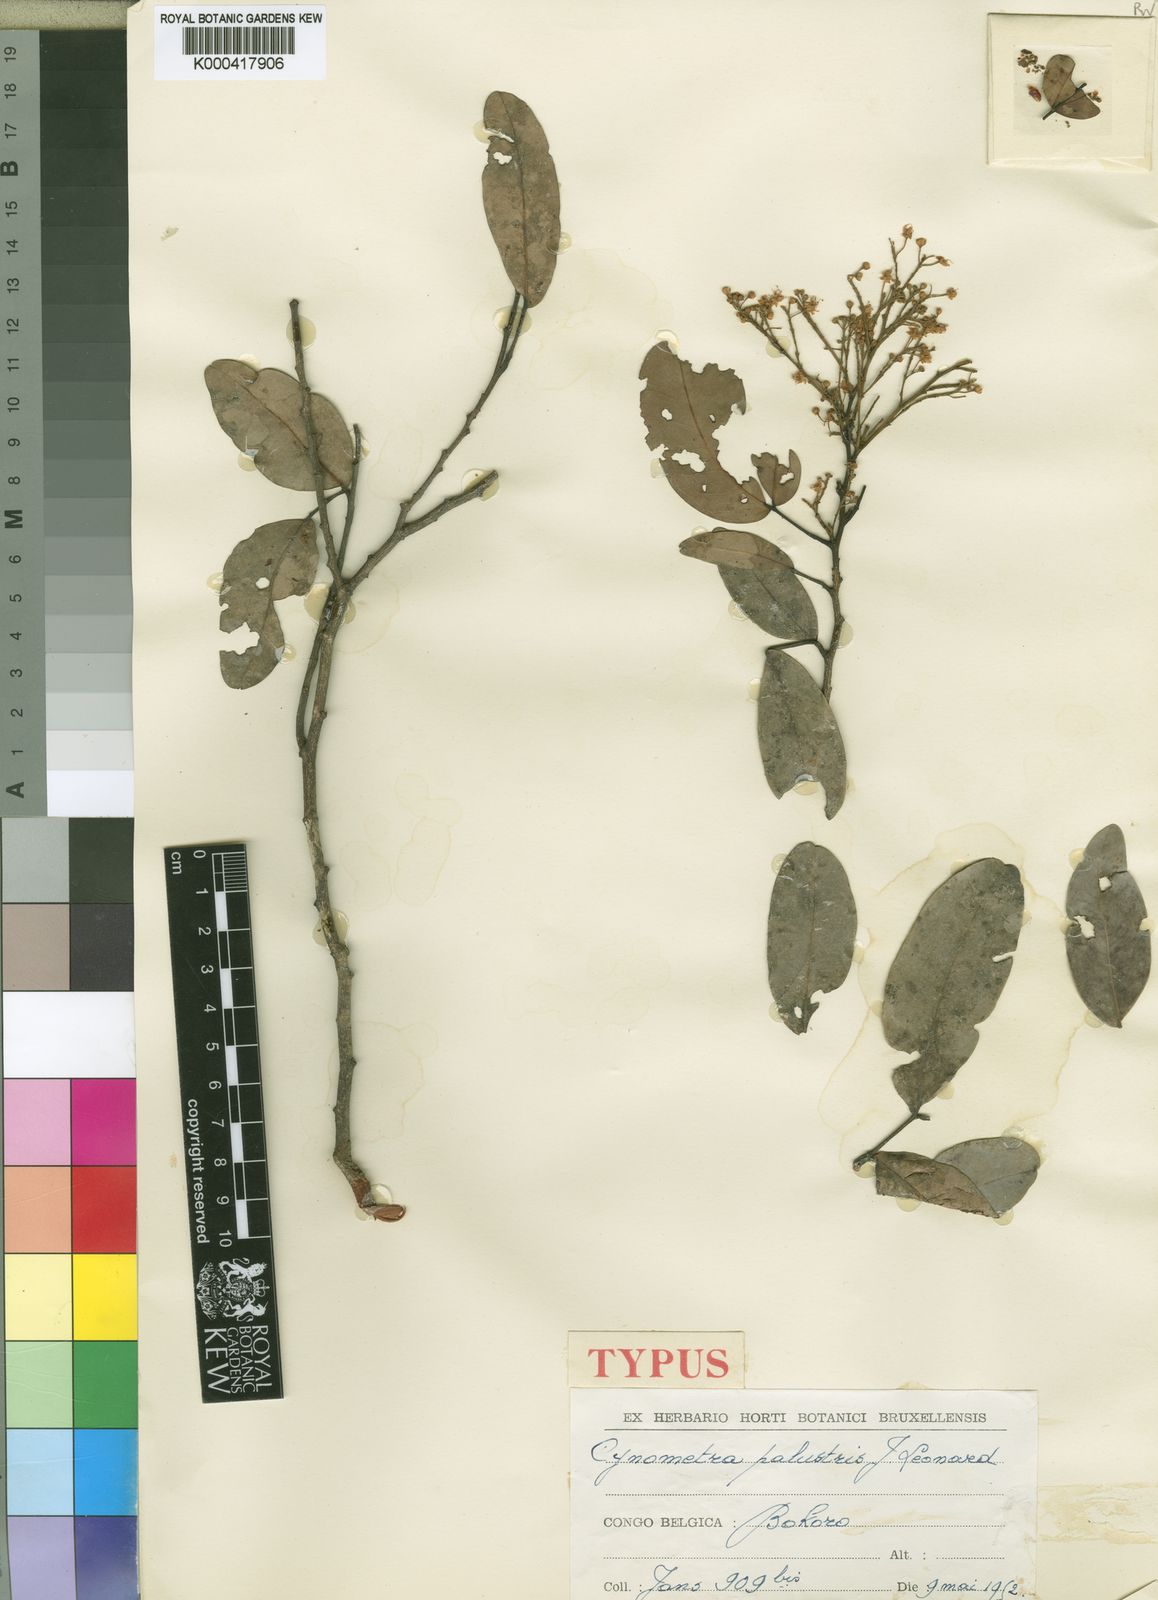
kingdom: Plantae
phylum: Tracheophyta
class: Magnoliopsida
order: Fabales
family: Fabaceae
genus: Cynometra
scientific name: Cynometra
